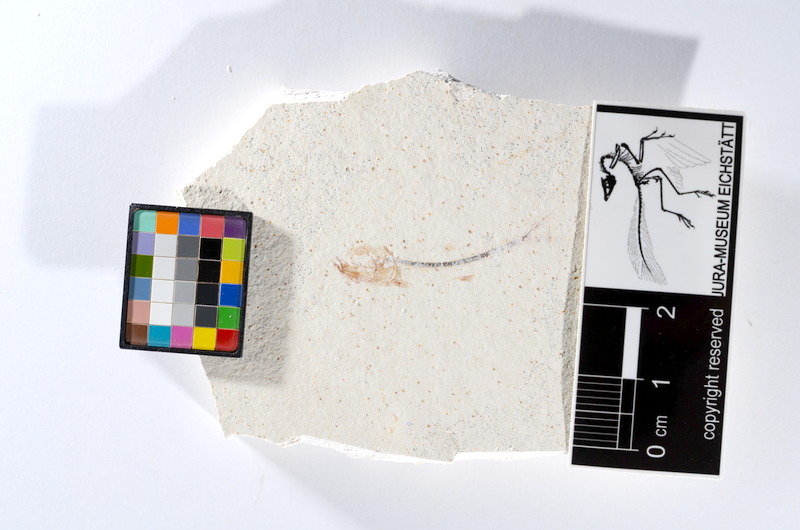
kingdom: Animalia
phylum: Chordata
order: Salmoniformes
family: Orthogonikleithridae
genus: Orthogonikleithrus
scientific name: Orthogonikleithrus hoelli
